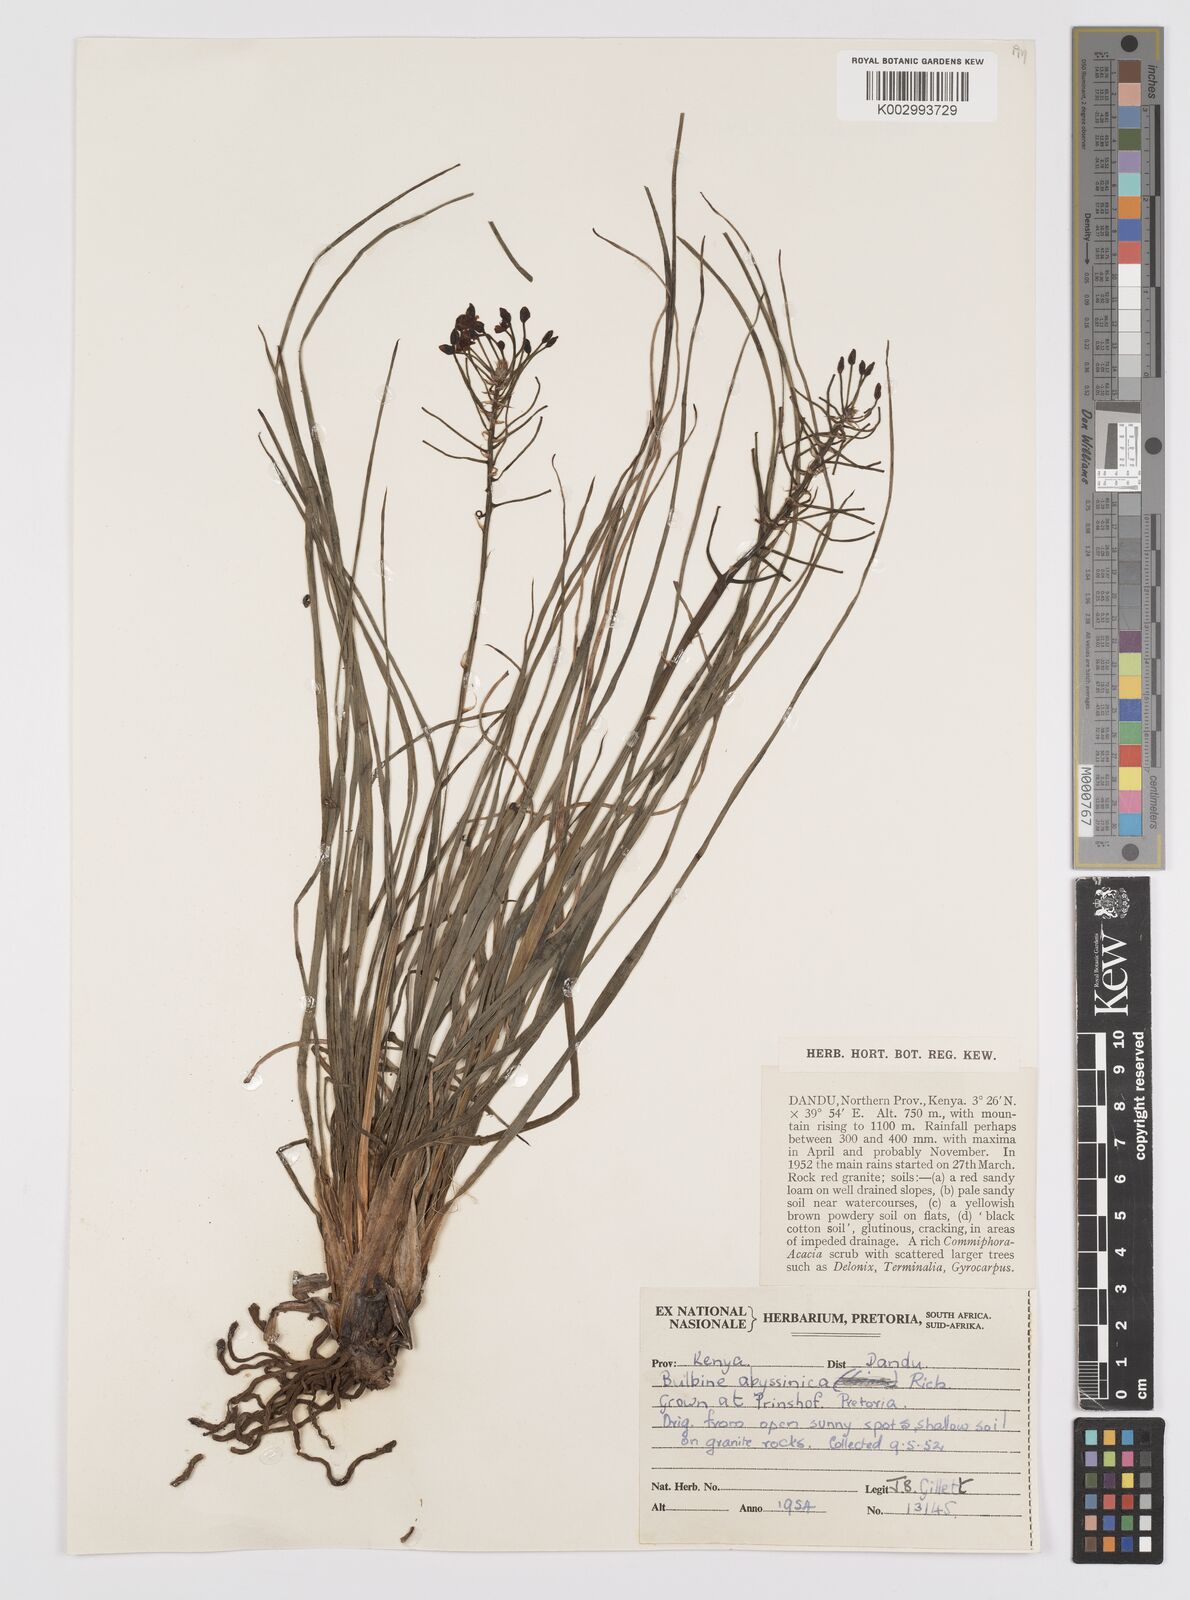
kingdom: Plantae
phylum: Tracheophyta
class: Liliopsida
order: Asparagales
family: Asphodelaceae
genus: Bulbine
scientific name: Bulbine abyssinica
